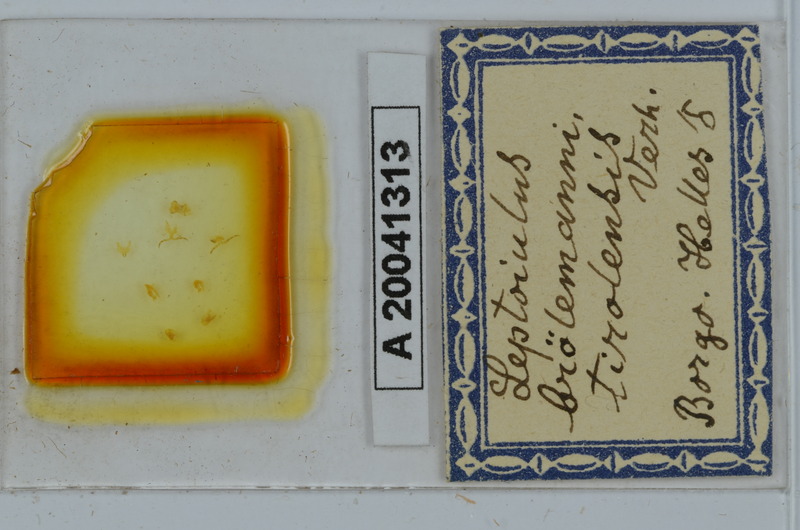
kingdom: Animalia
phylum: Arthropoda
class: Diplopoda
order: Julida
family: Julidae
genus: Leptoiulus
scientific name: Leptoiulus broelemanni
